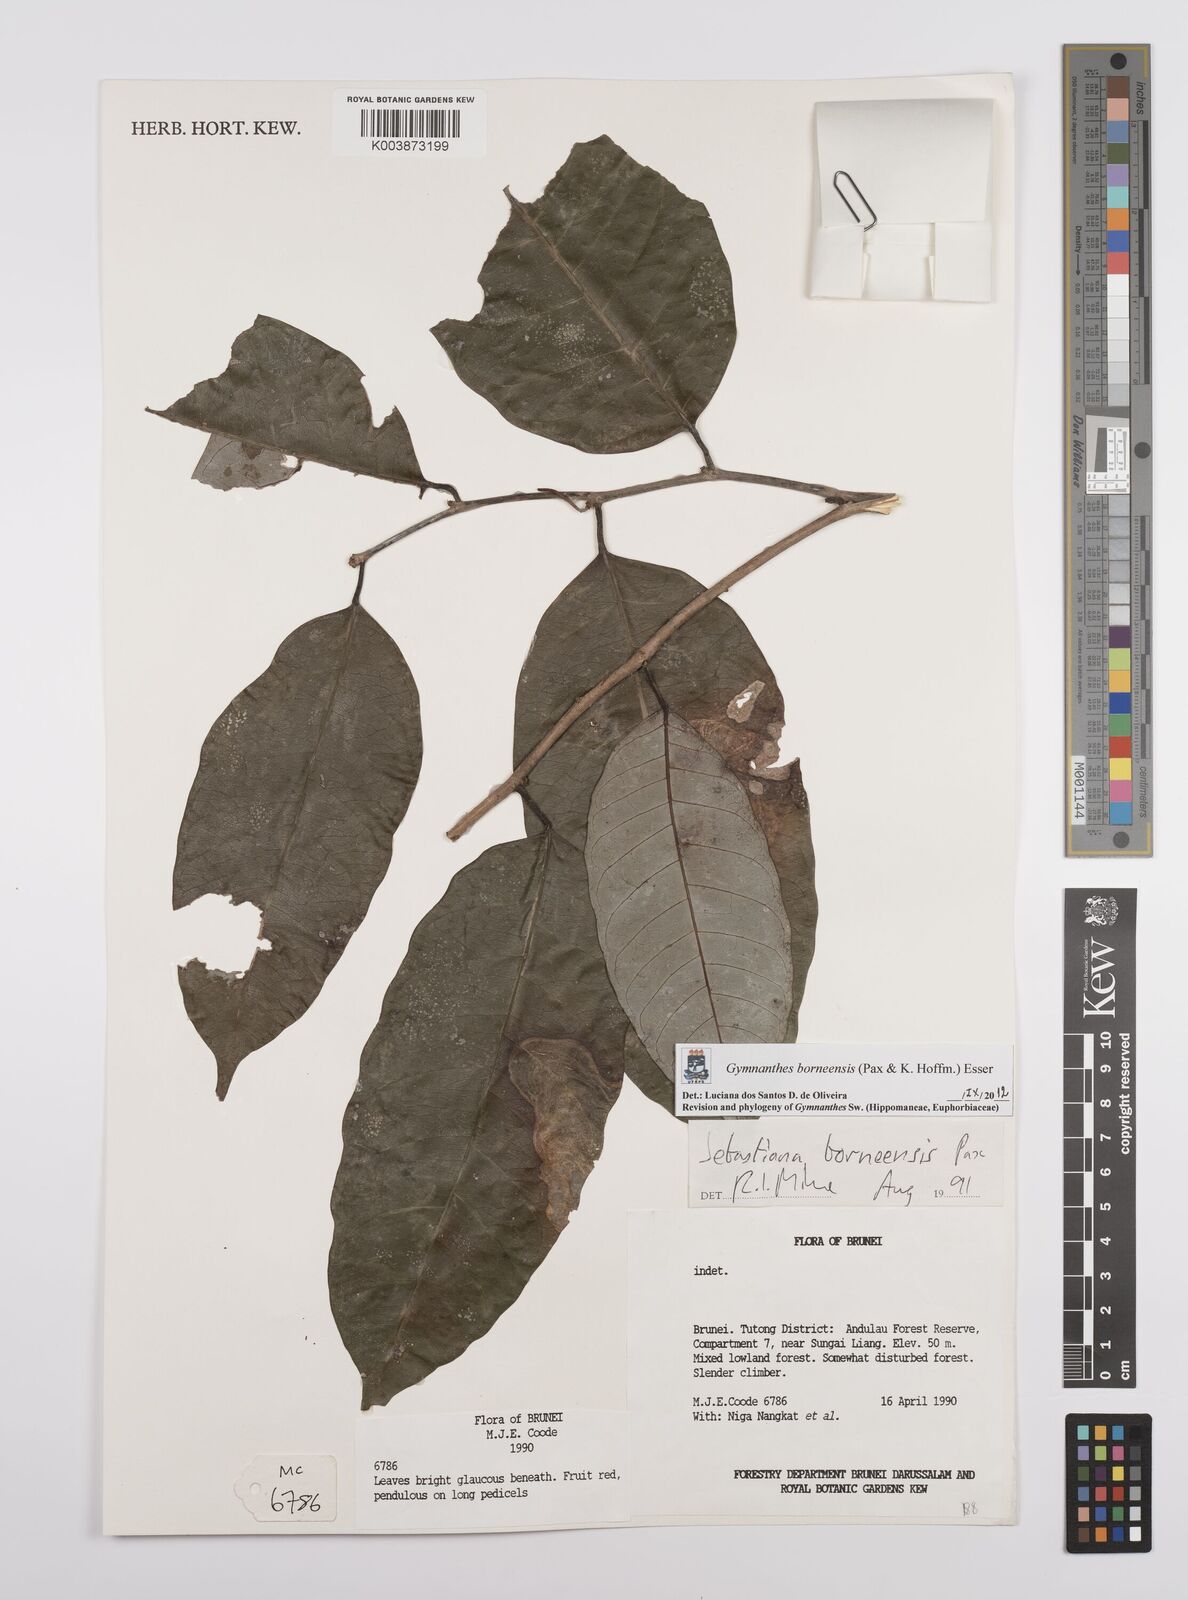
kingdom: Plantae
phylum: Tracheophyta
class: Magnoliopsida
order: Malpighiales
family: Euphorbiaceae
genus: Gymnanthes
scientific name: Gymnanthes borneensis
